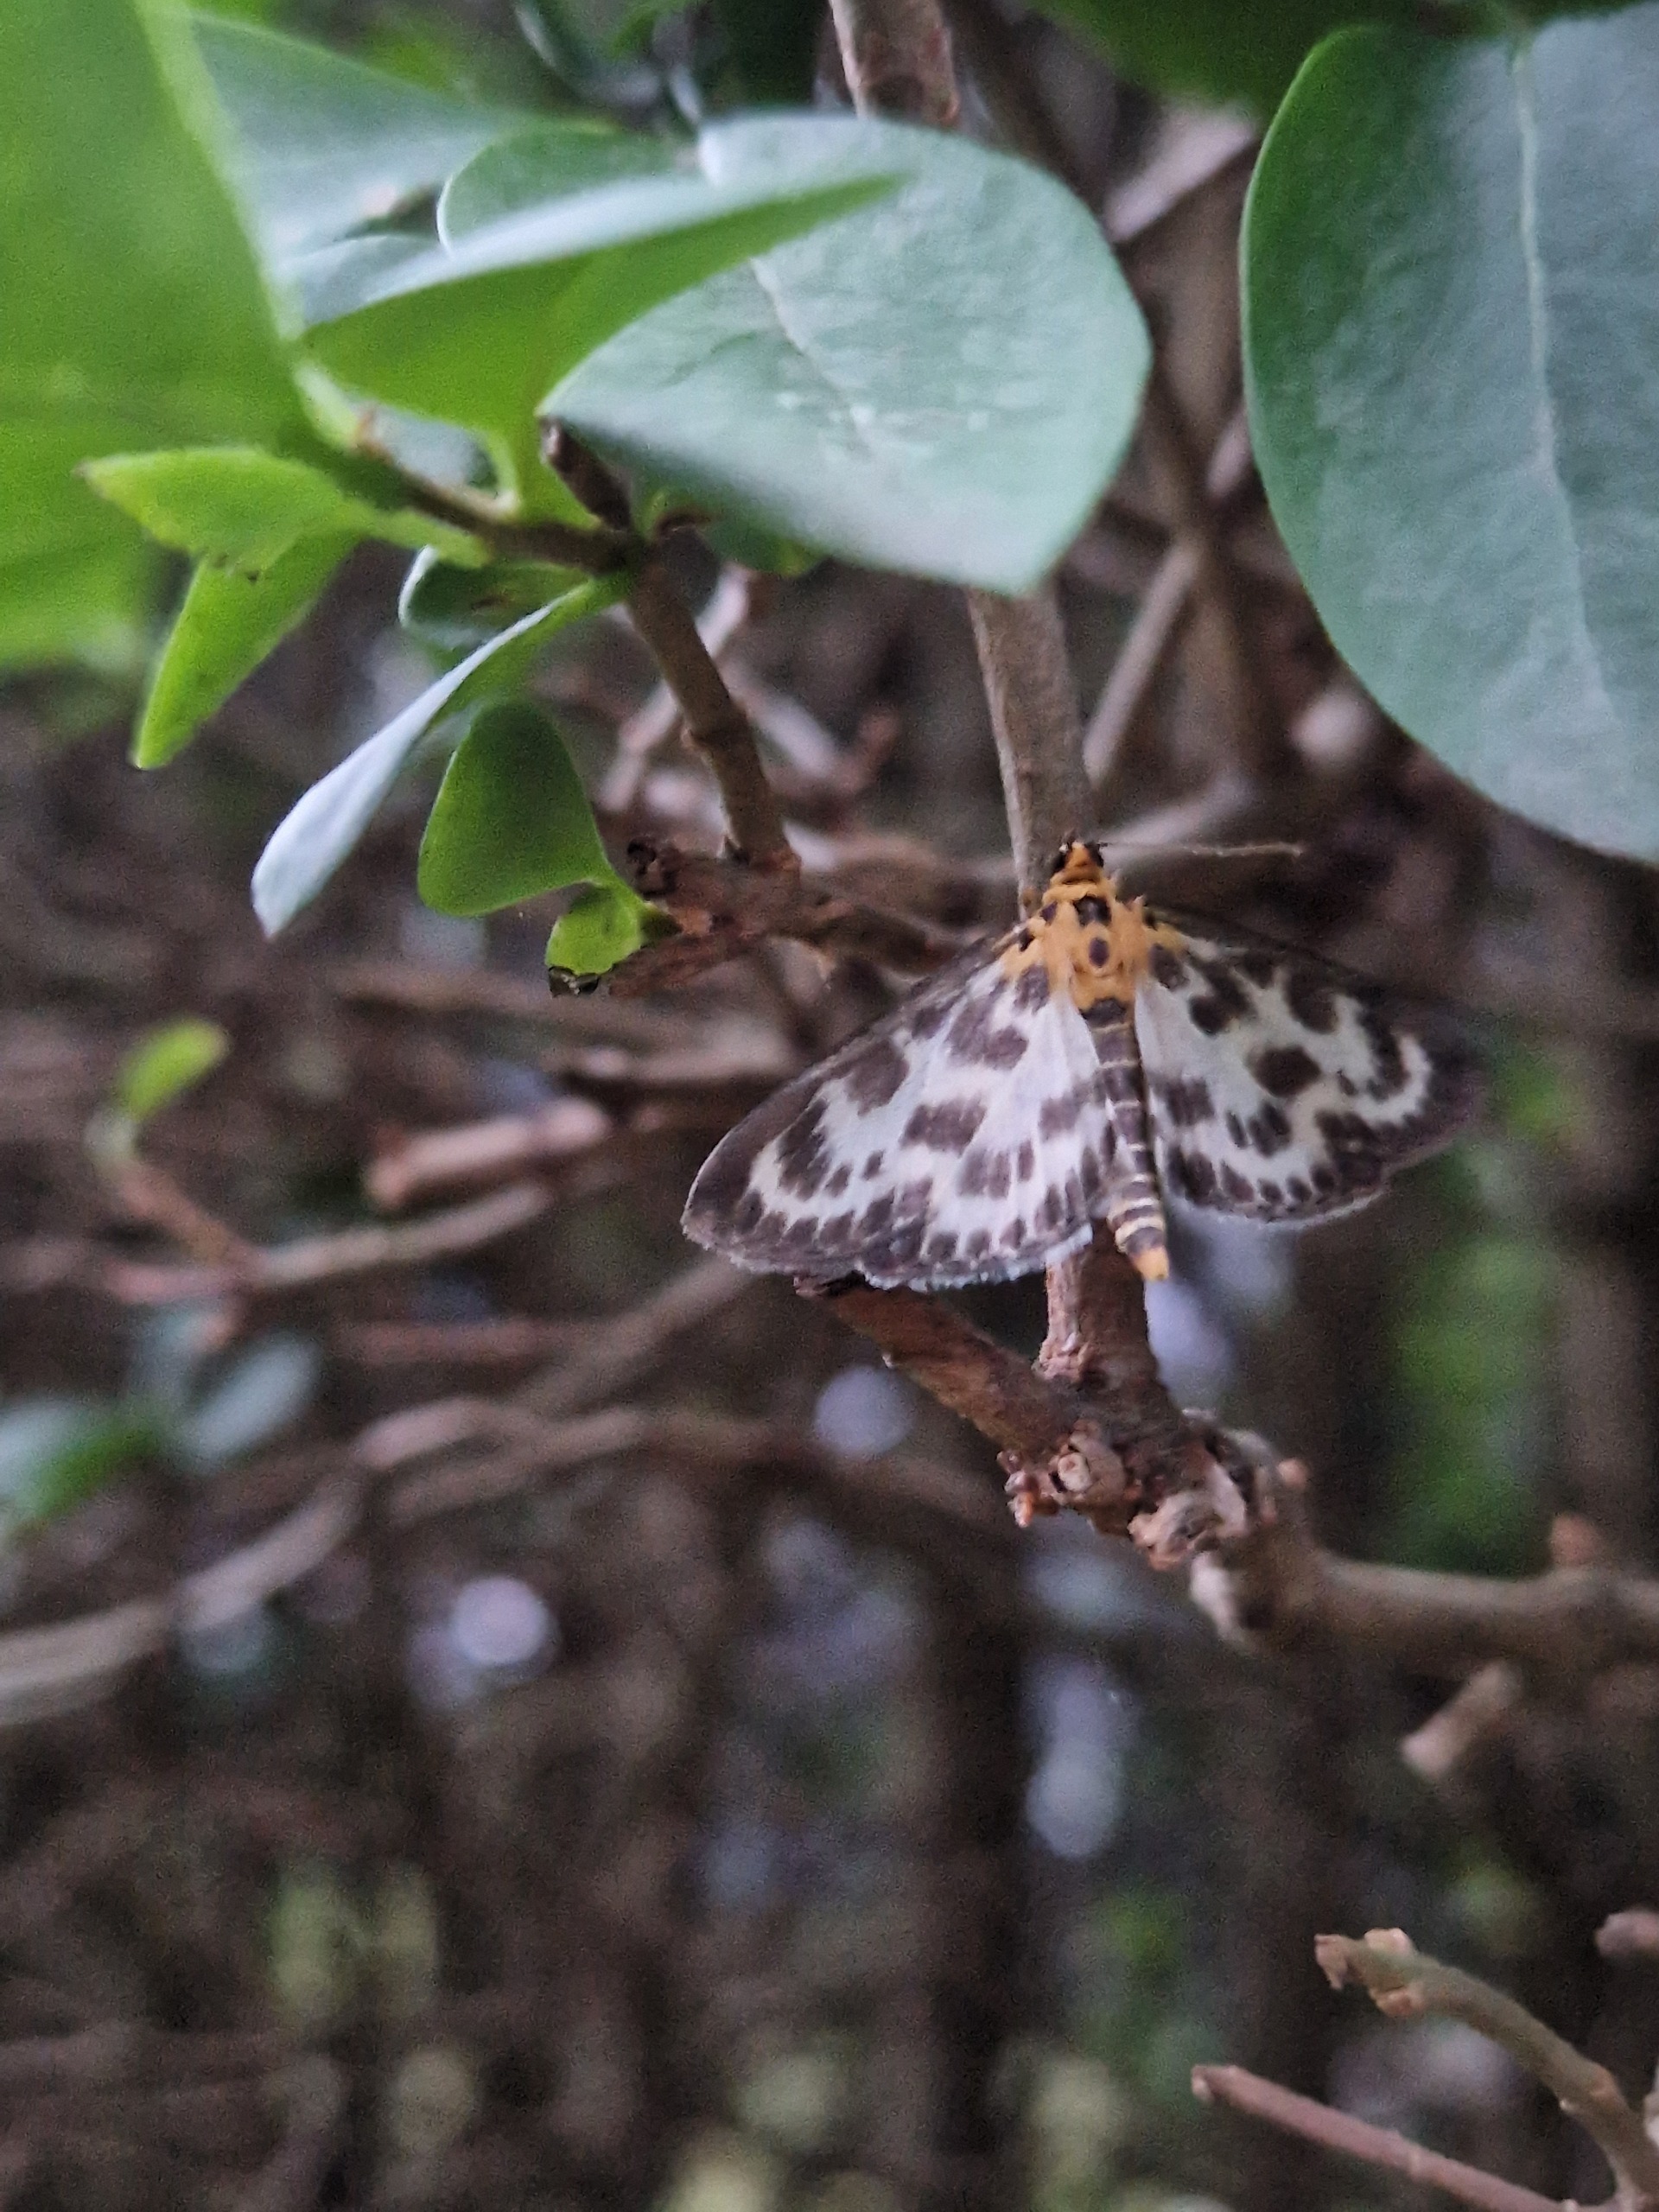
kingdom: Animalia
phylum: Arthropoda
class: Insecta
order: Lepidoptera
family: Crambidae
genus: Anania
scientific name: Anania hortulata
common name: Nældehalvmøl
